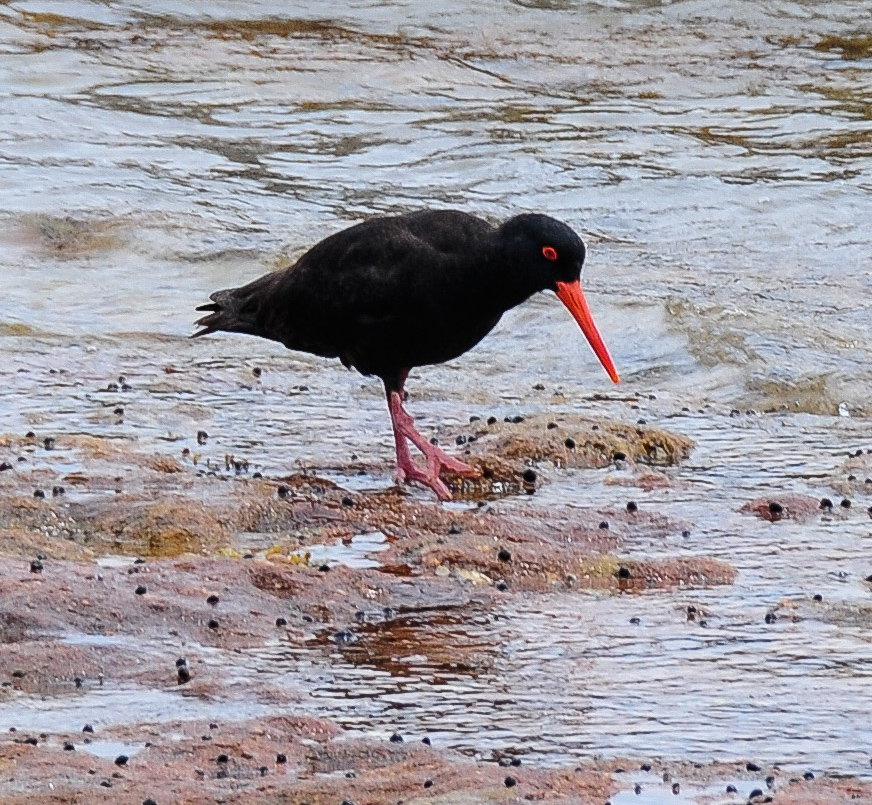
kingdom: Animalia
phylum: Chordata
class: Aves
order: Charadriiformes
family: Haematopodidae
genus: Haematopus
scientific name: Haematopus fuliginosus
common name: Sooty oystercatcher
